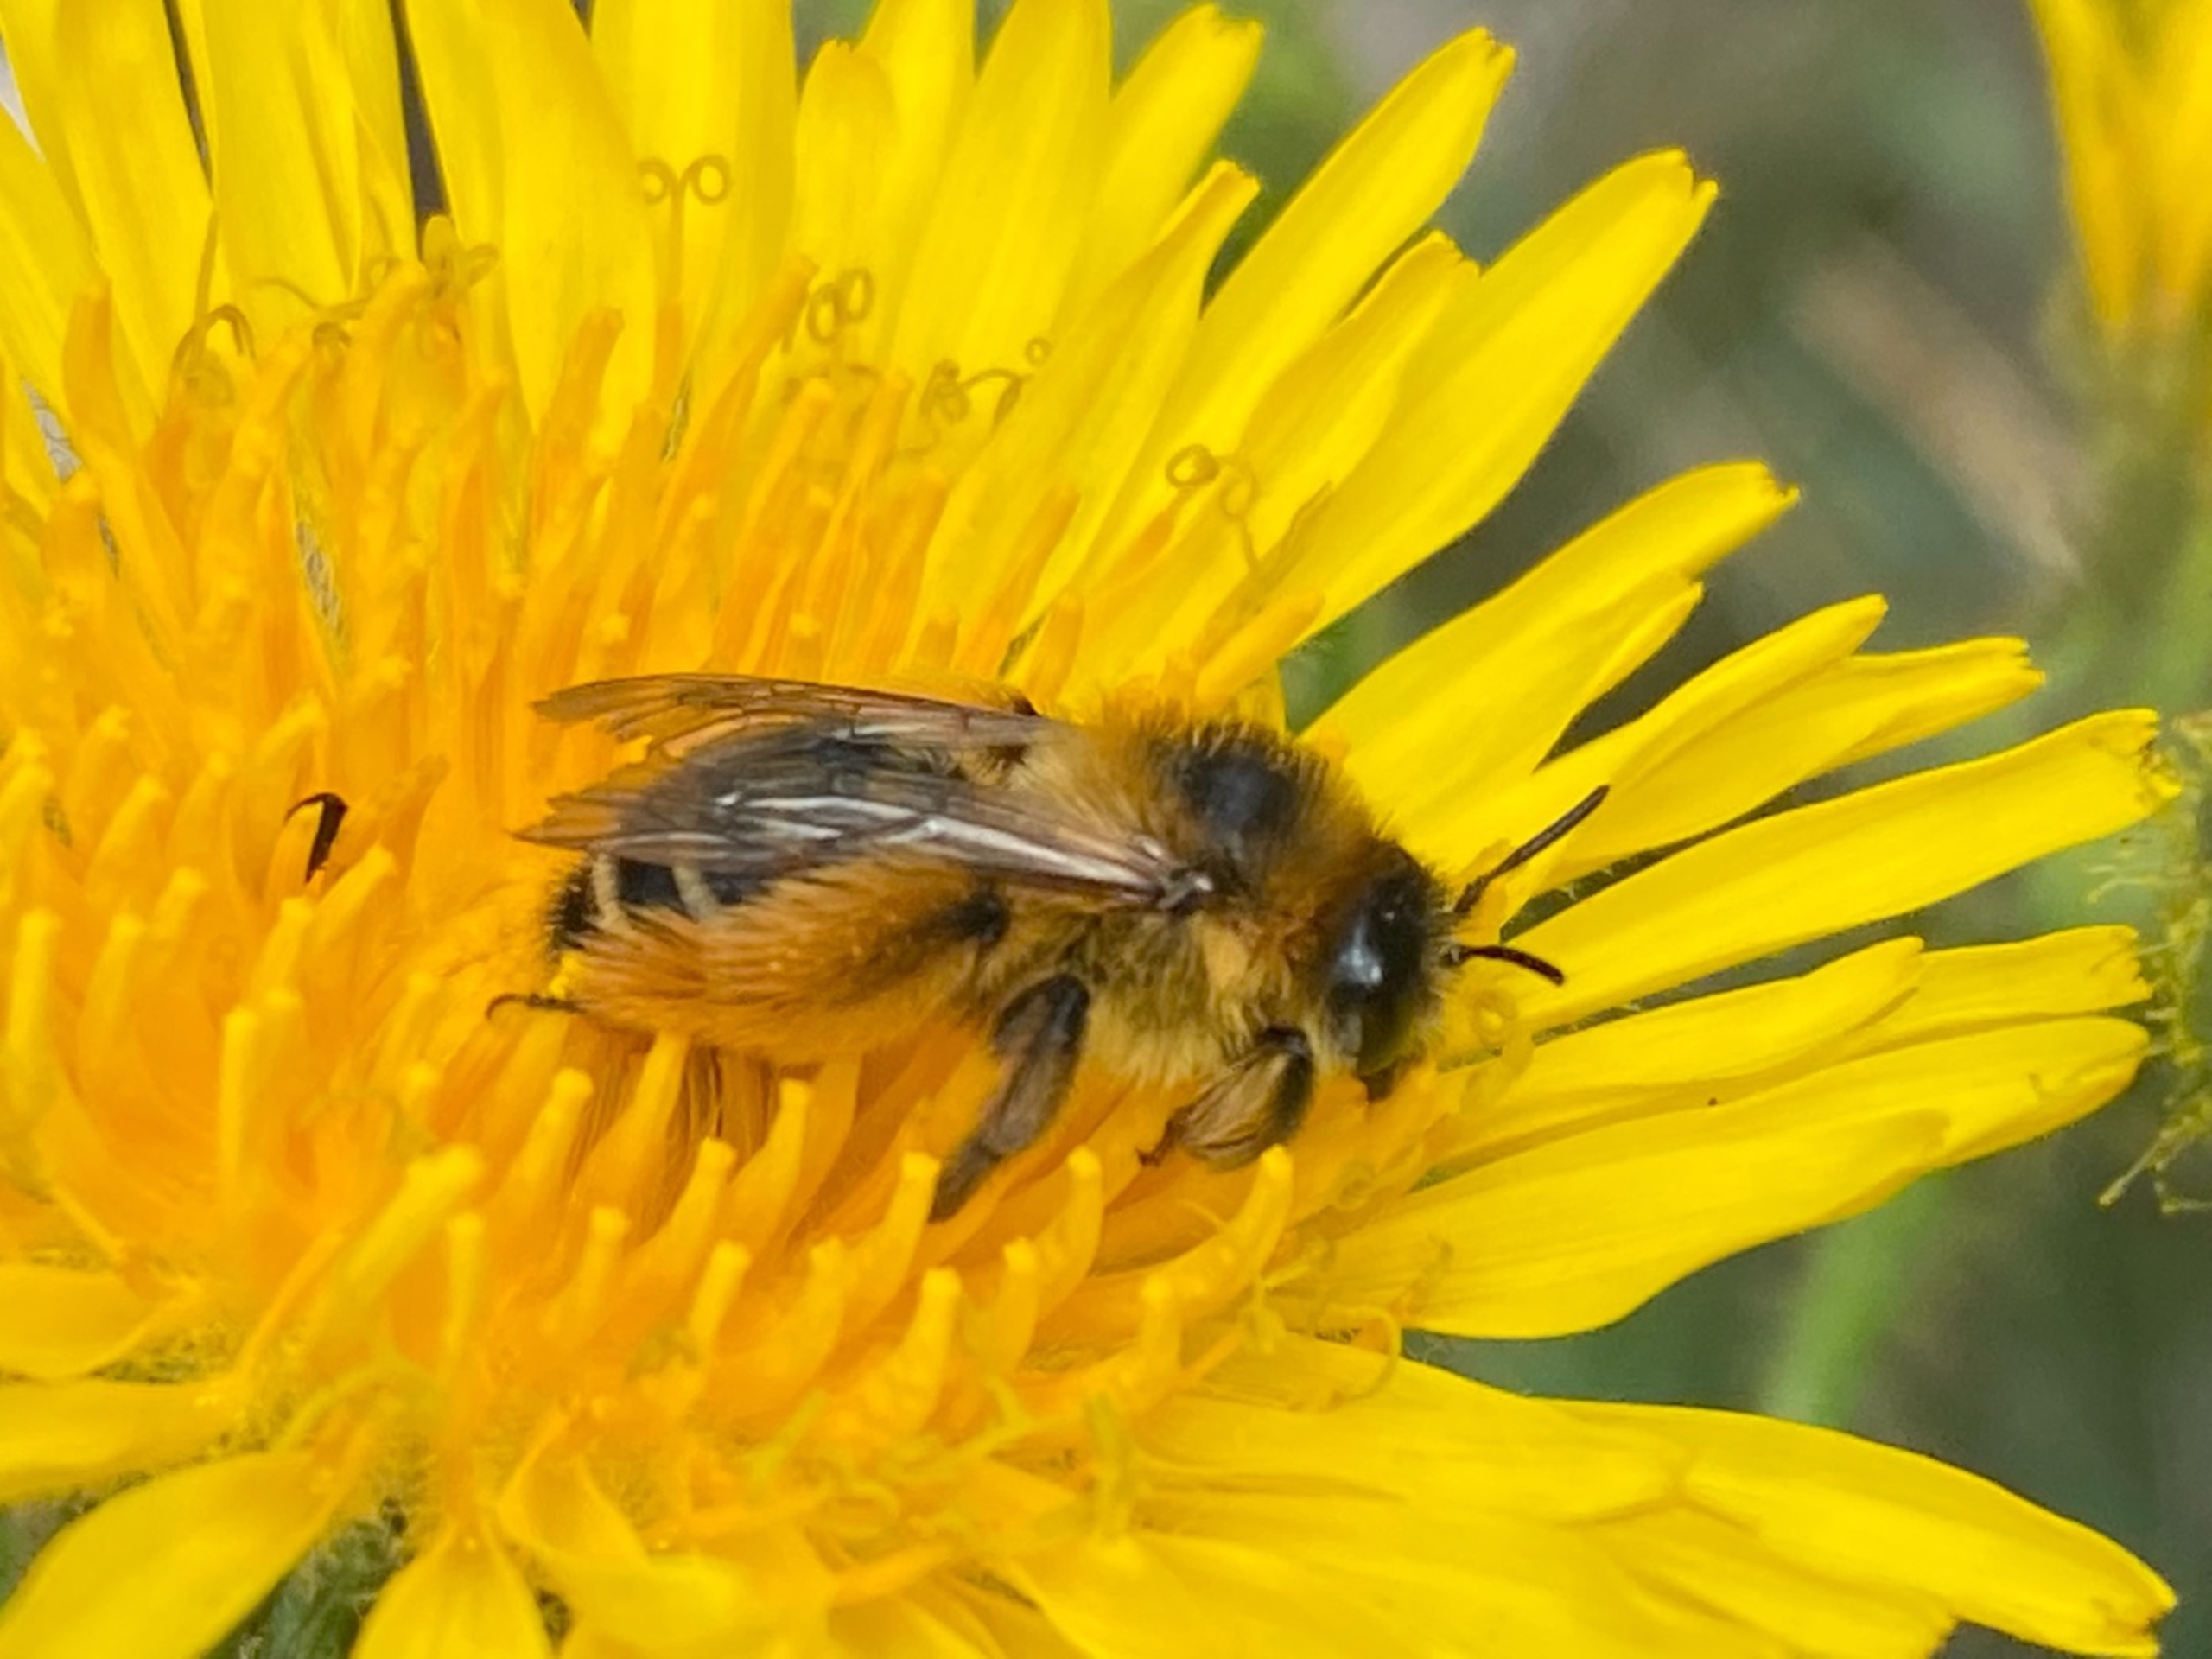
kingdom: Animalia
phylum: Arthropoda
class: Insecta
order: Hymenoptera
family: Melittidae
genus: Dasypoda
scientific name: Dasypoda hirtipes
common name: Pragtbuksebi
